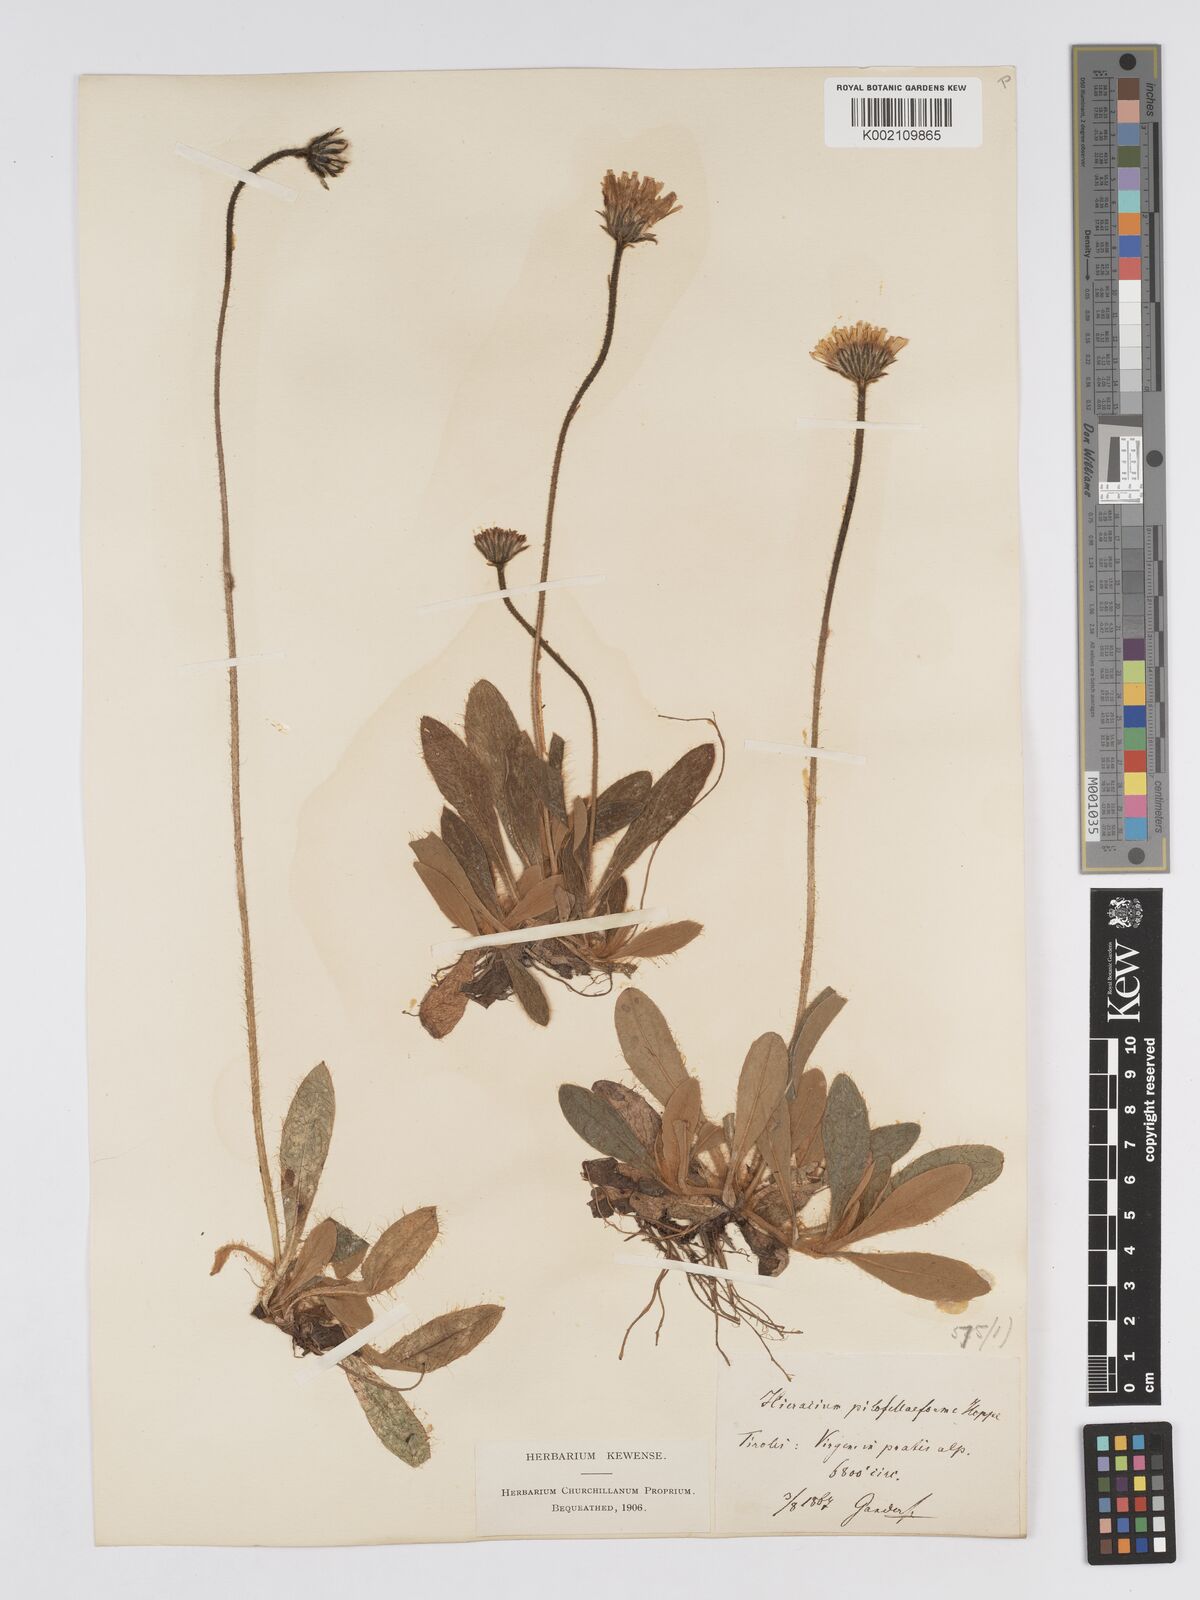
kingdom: Plantae
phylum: Tracheophyta
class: Magnoliopsida
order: Asterales
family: Asteraceae
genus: Pilosella
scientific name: Pilosella hoppeana
